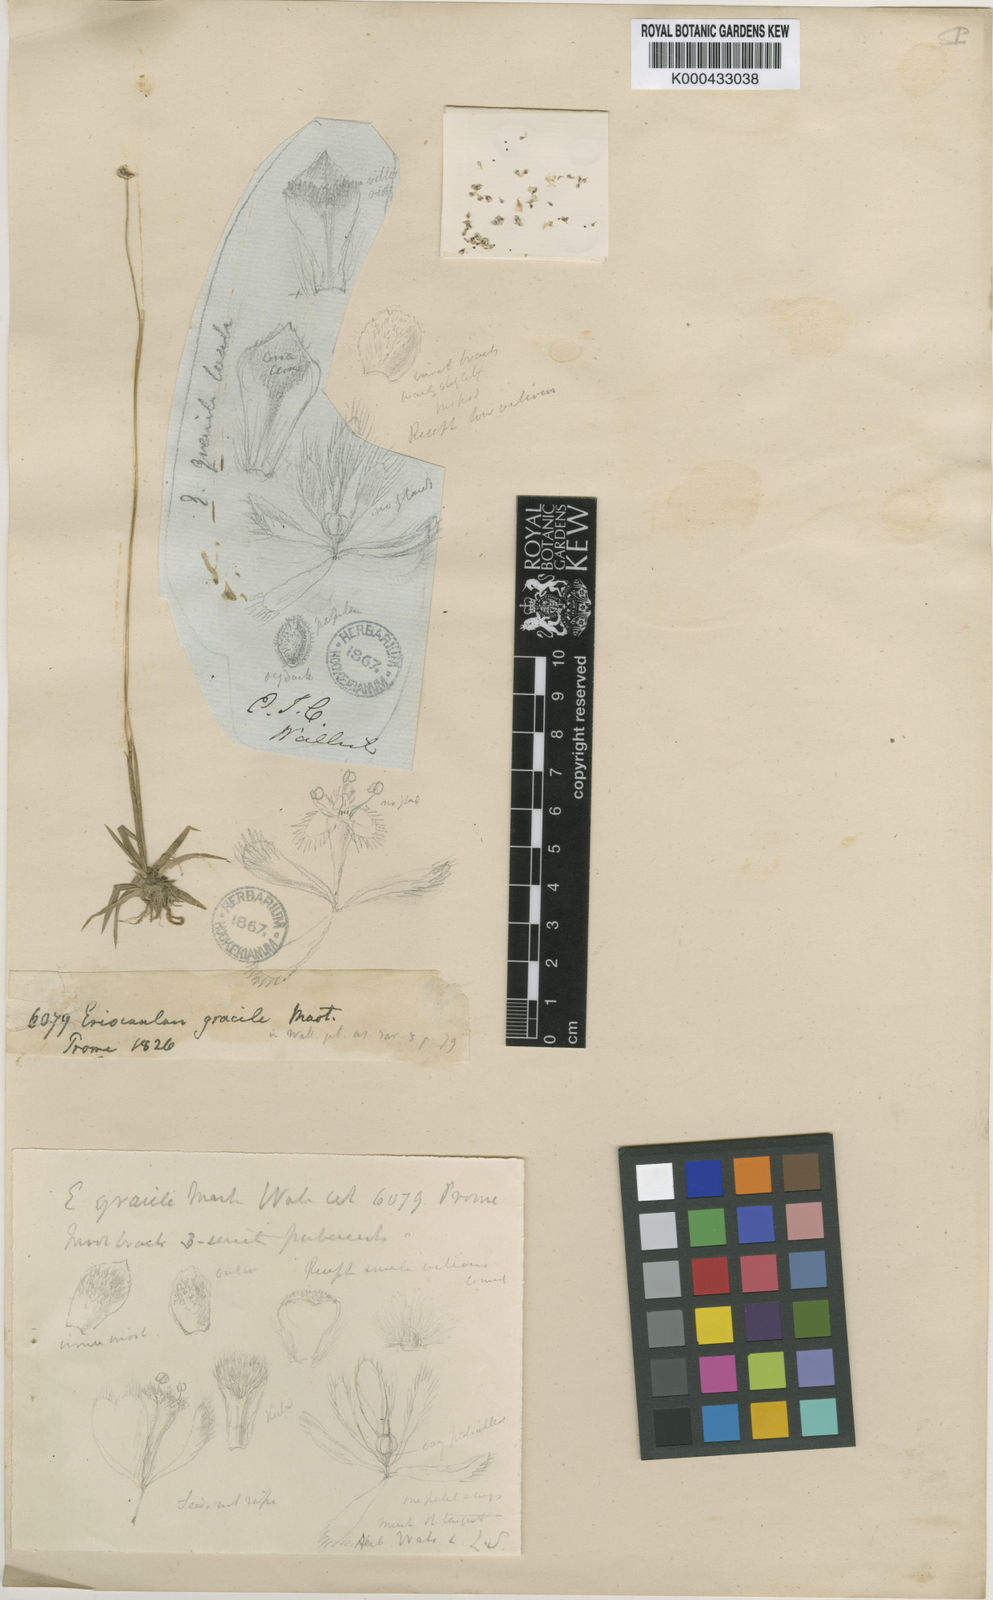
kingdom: Plantae
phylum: Tracheophyta
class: Liliopsida
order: Poales
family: Eriocaulaceae
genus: Eriocaulon
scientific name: Eriocaulon infirmum
